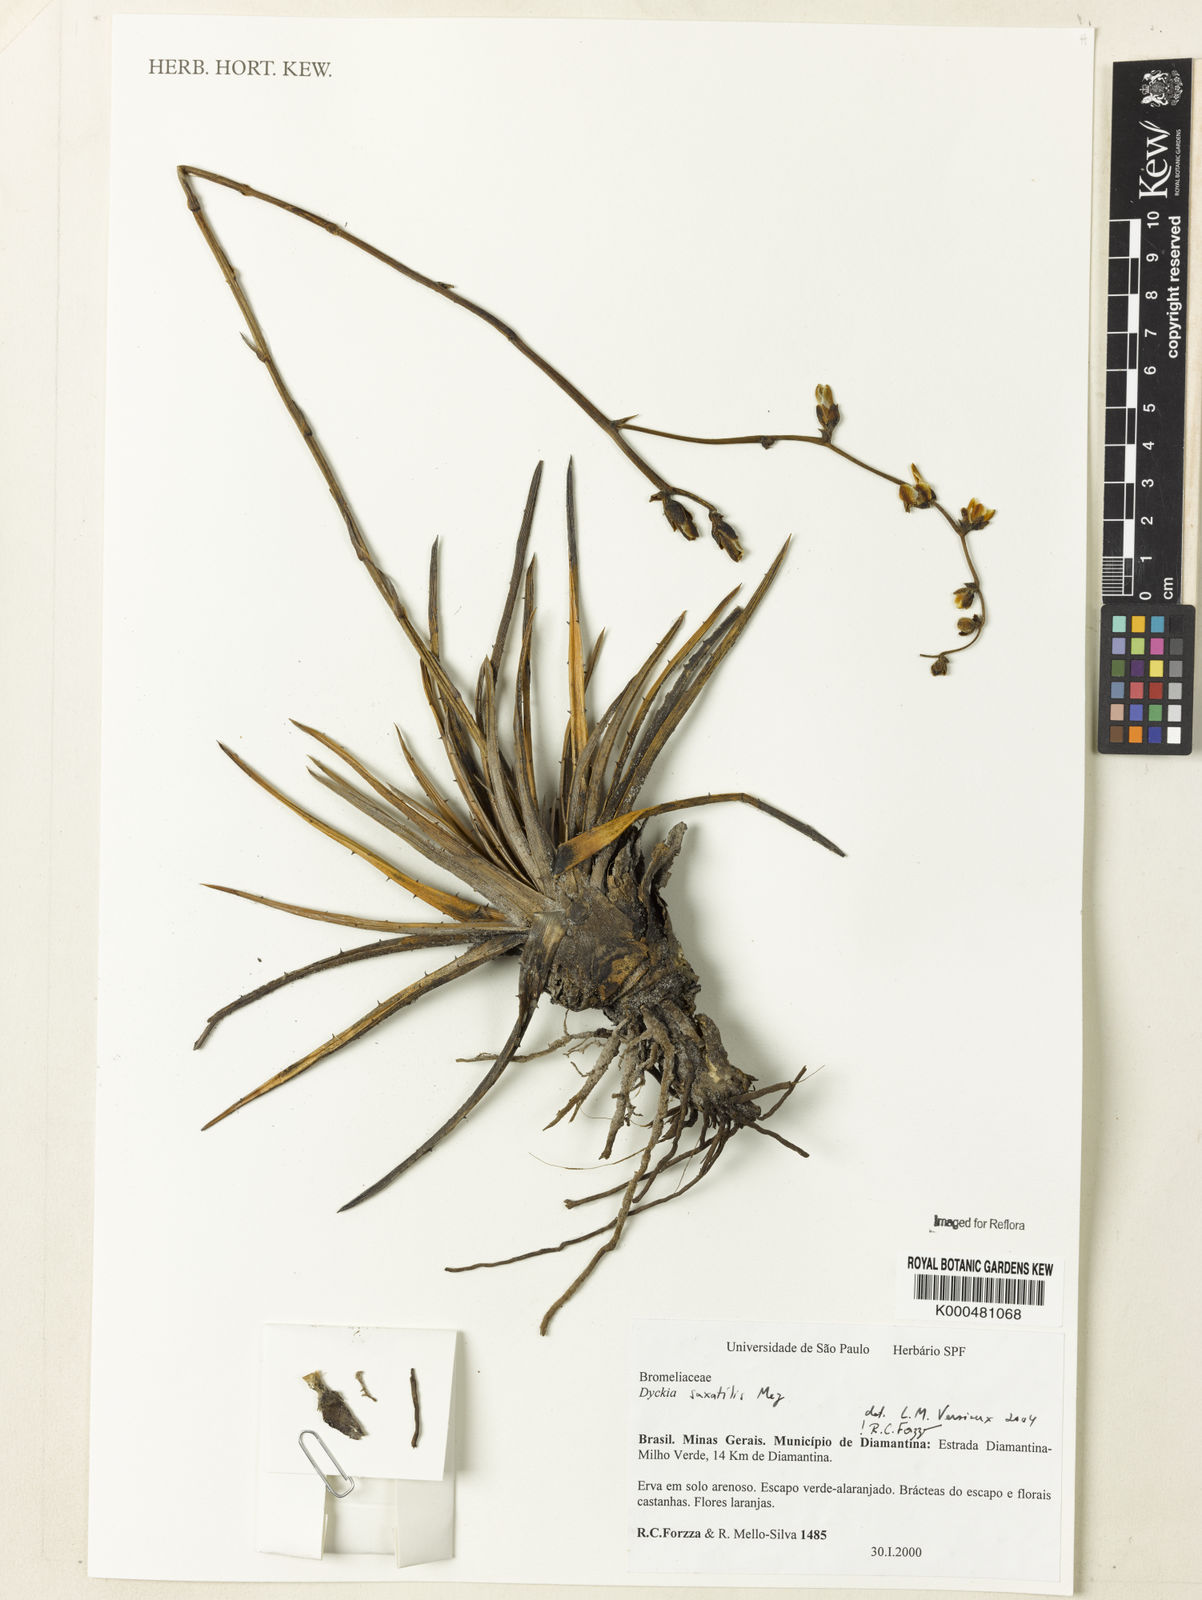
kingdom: Plantae
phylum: Tracheophyta
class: Liliopsida
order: Poales
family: Bromeliaceae
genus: Dyckia
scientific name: Dyckia saxatilis
